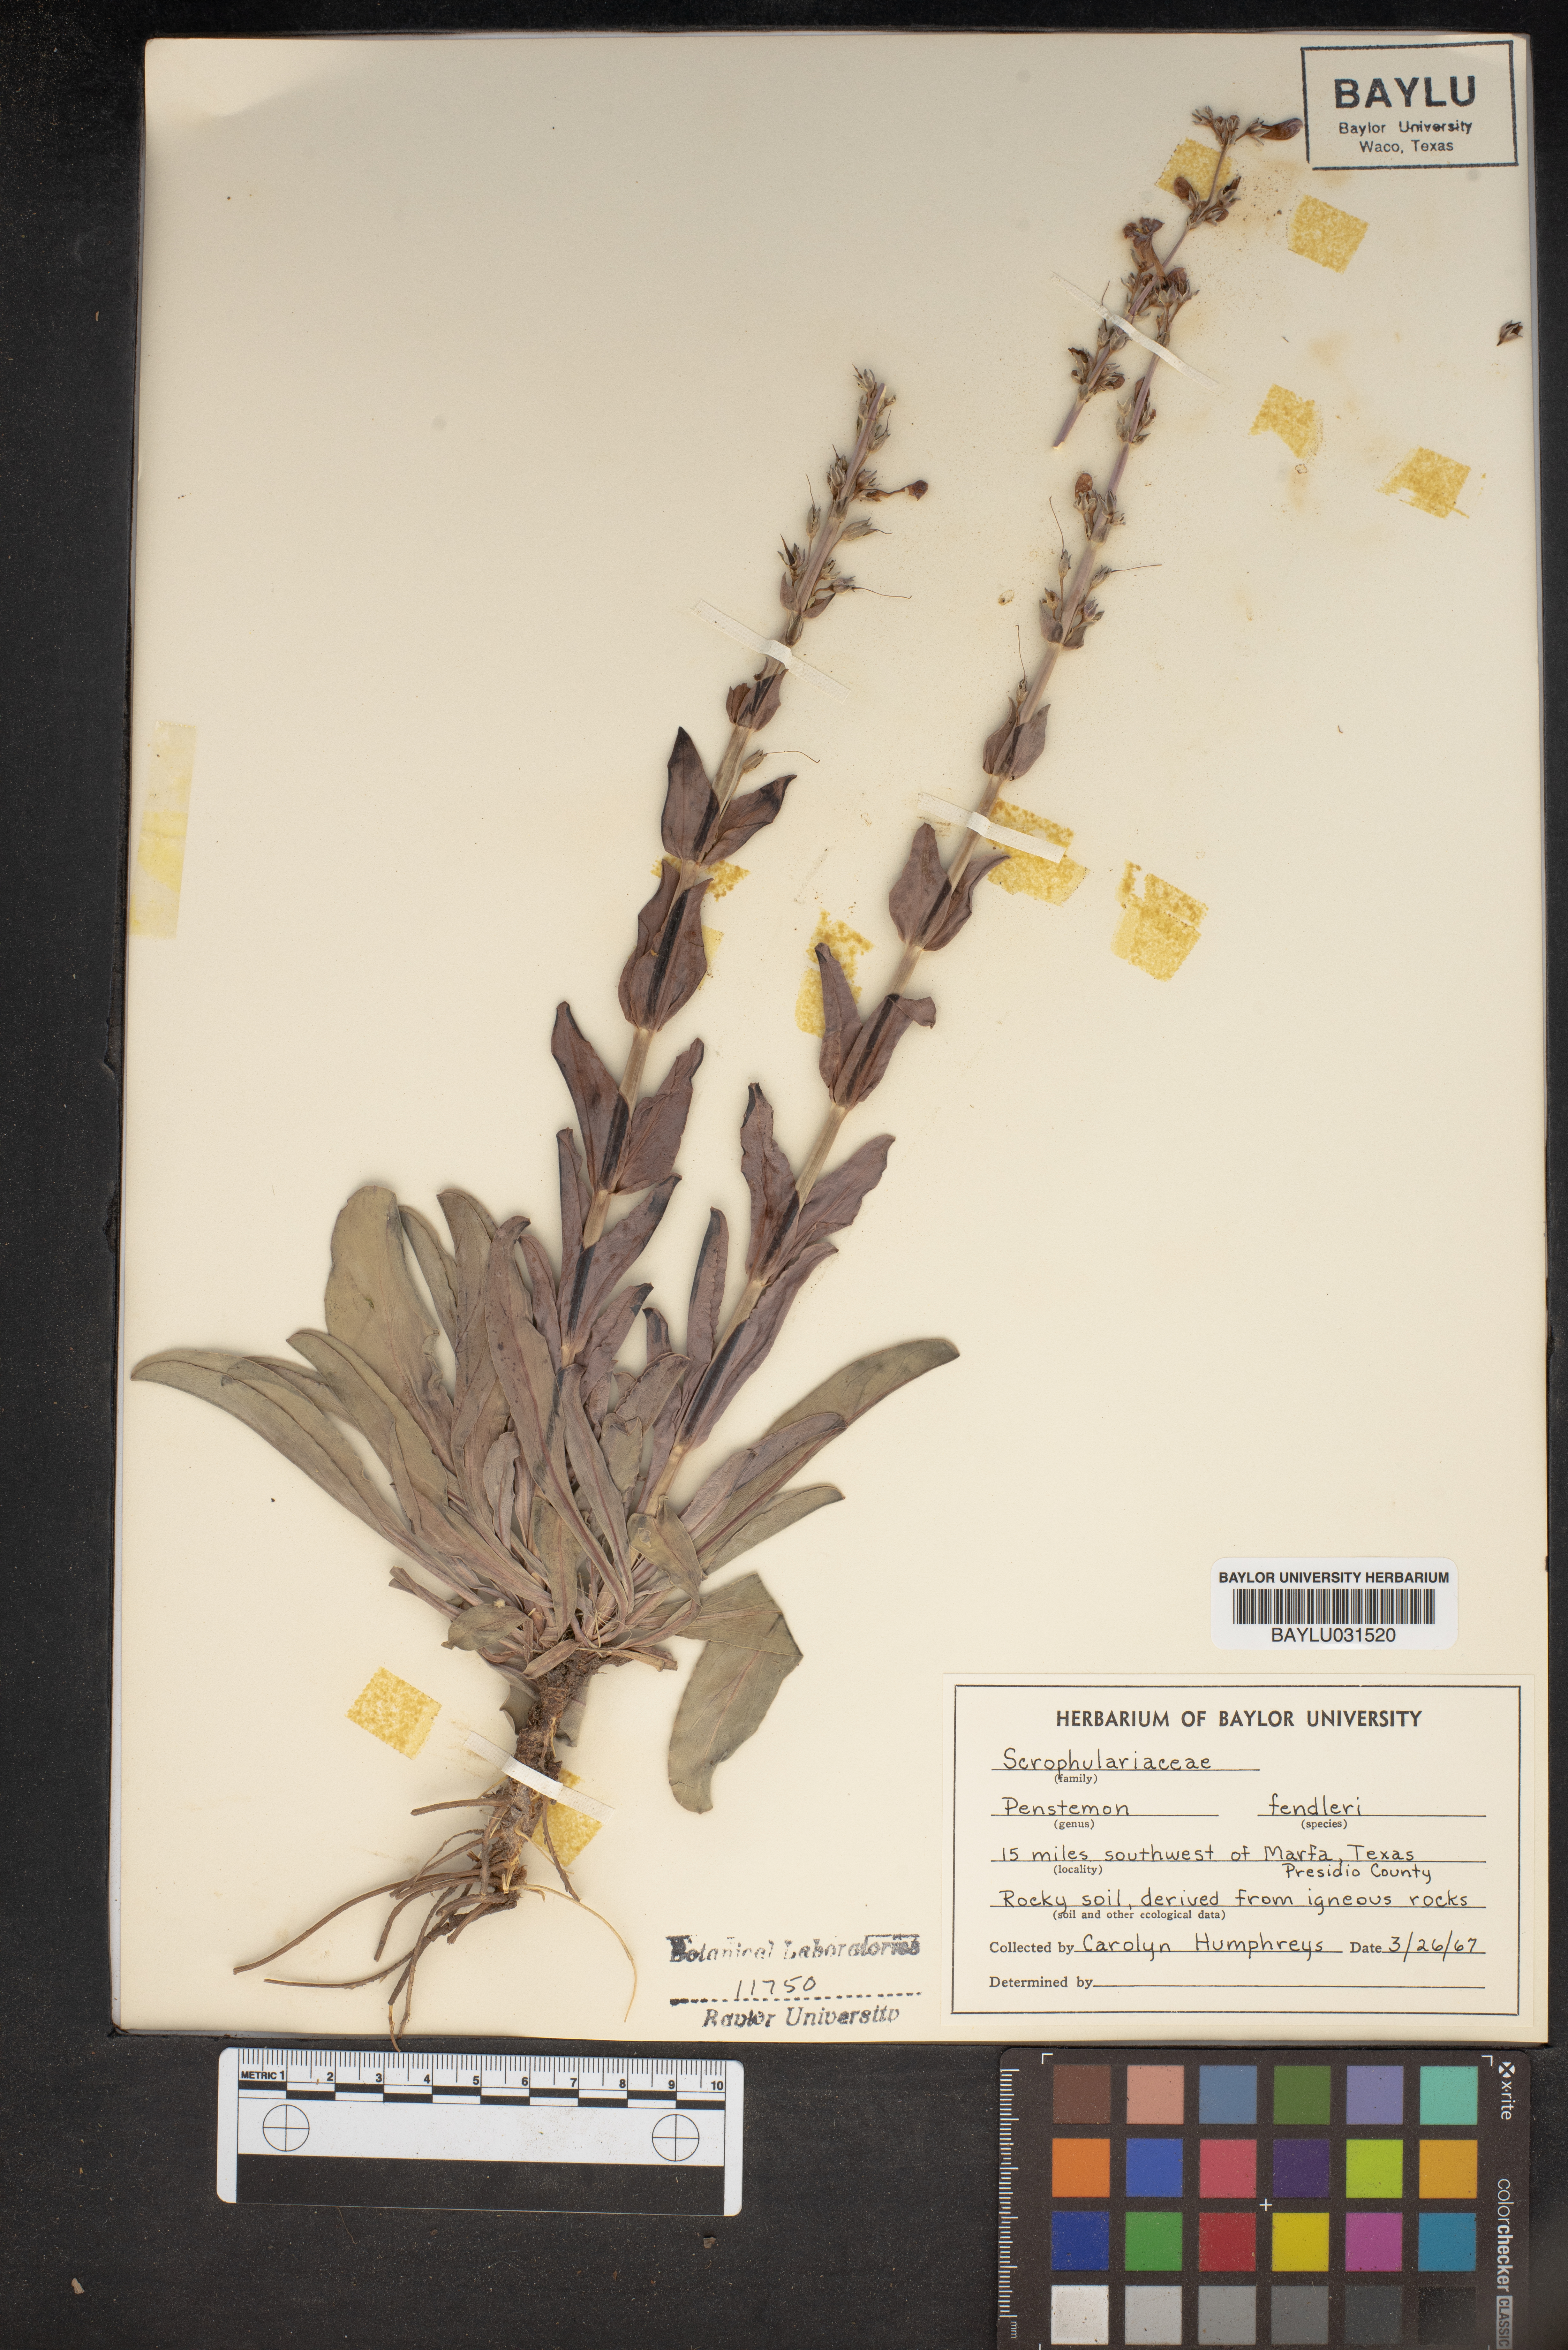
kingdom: Plantae
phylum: Tracheophyta
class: Magnoliopsida
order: Lamiales
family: Plantaginaceae
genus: Penstemon
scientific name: Penstemon fendleri
